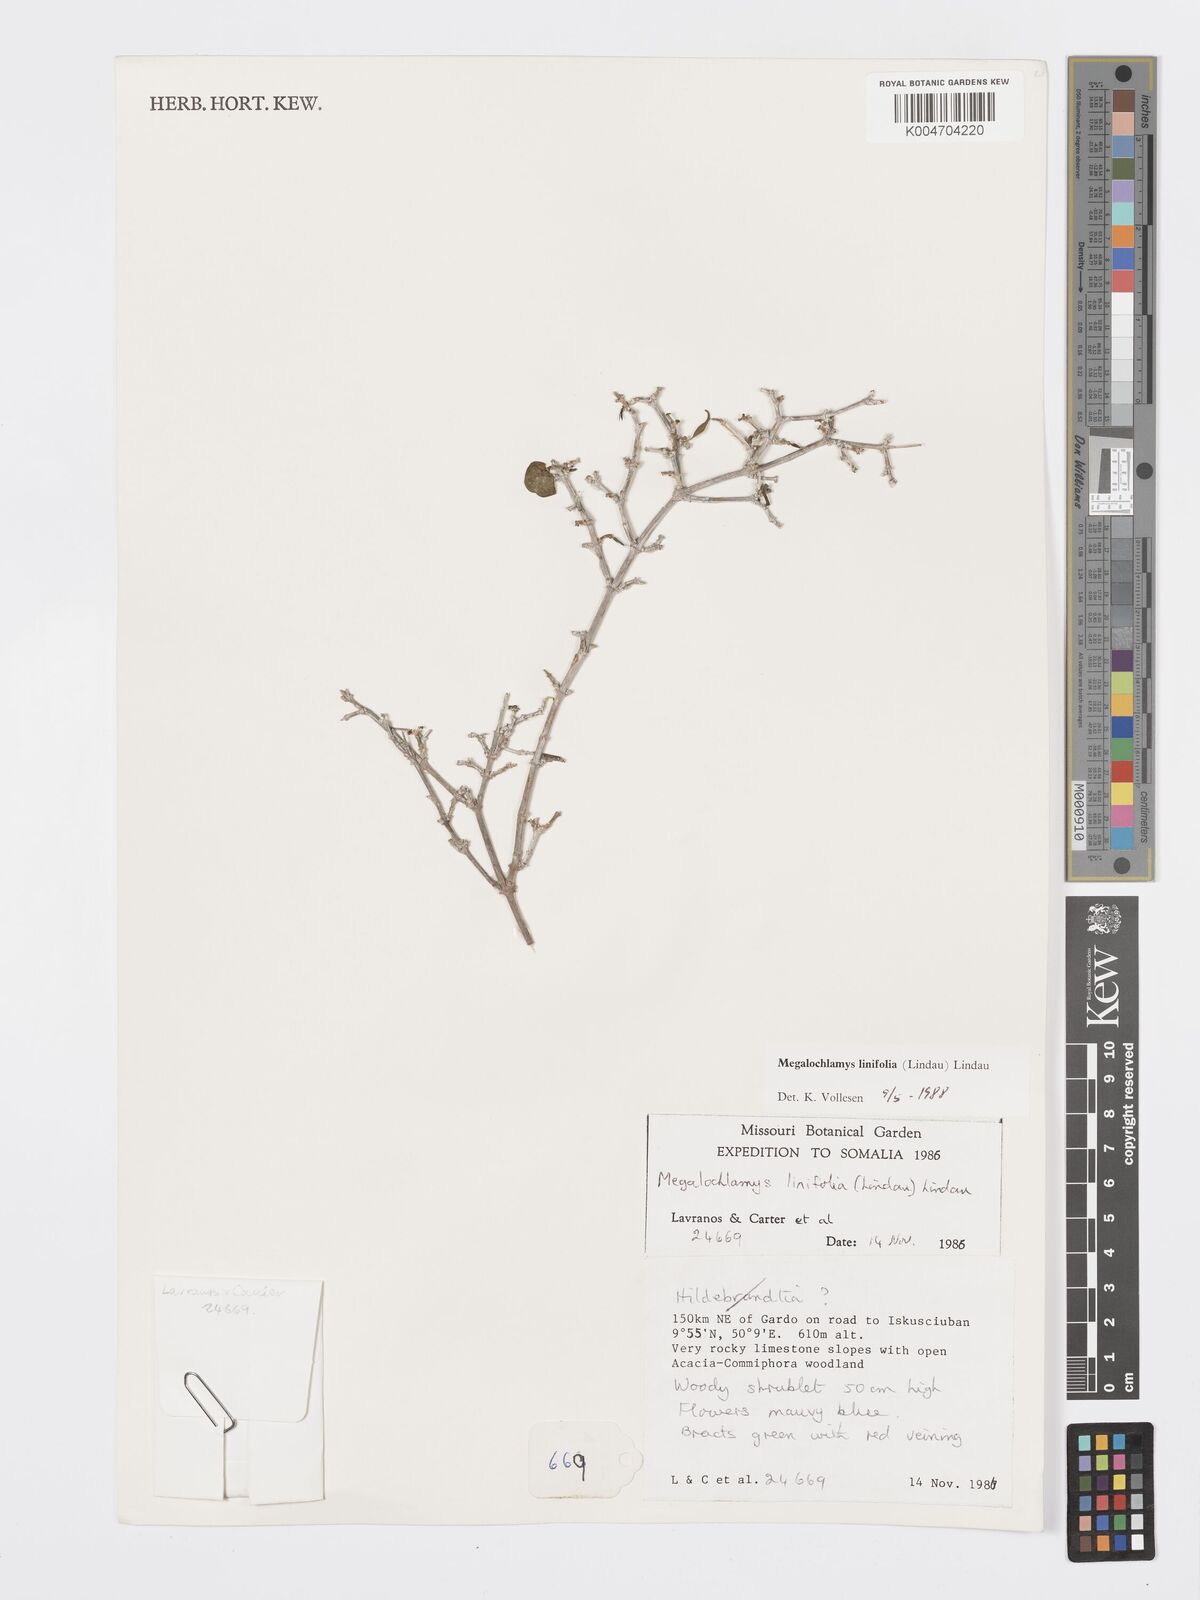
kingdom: Plantae
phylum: Tracheophyta
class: Magnoliopsida
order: Lamiales
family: Acanthaceae
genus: Megalochlamys
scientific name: Megalochlamys linifolia
